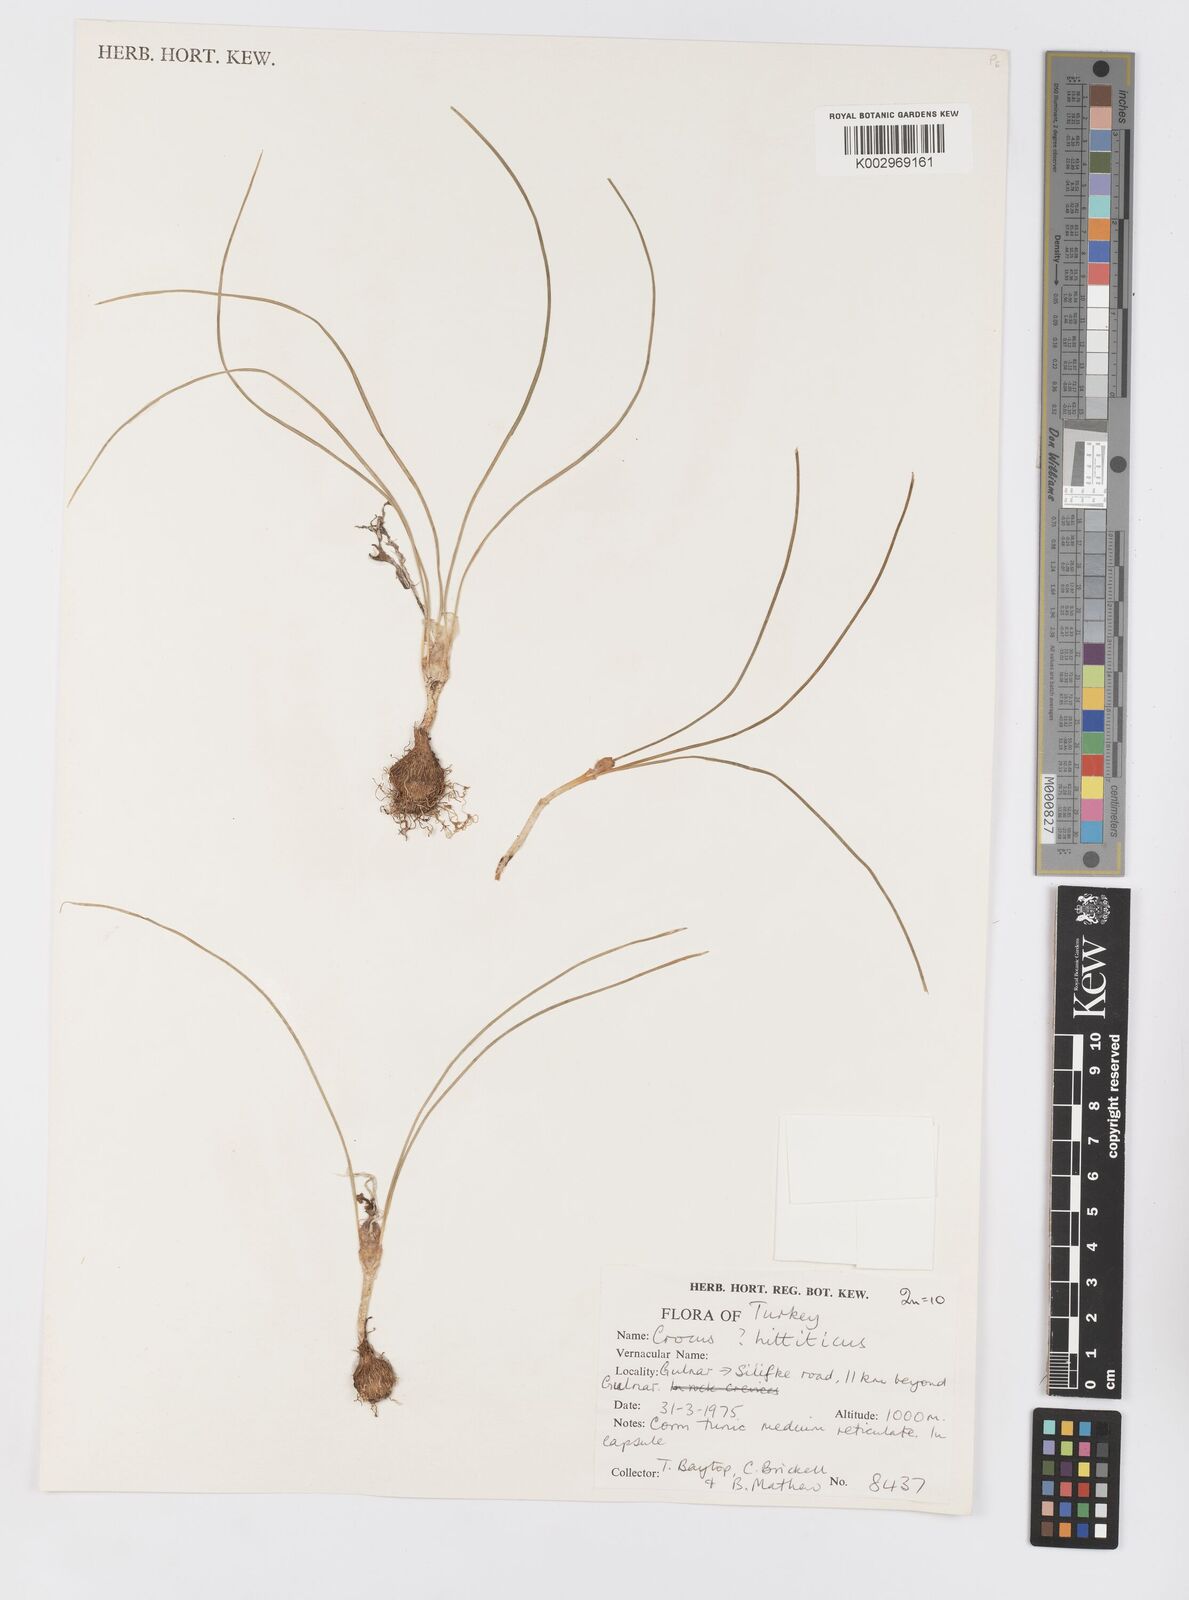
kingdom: Plantae
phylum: Tracheophyta
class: Liliopsida
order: Asparagales
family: Iridaceae
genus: Crocus
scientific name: Crocus hittiticus
